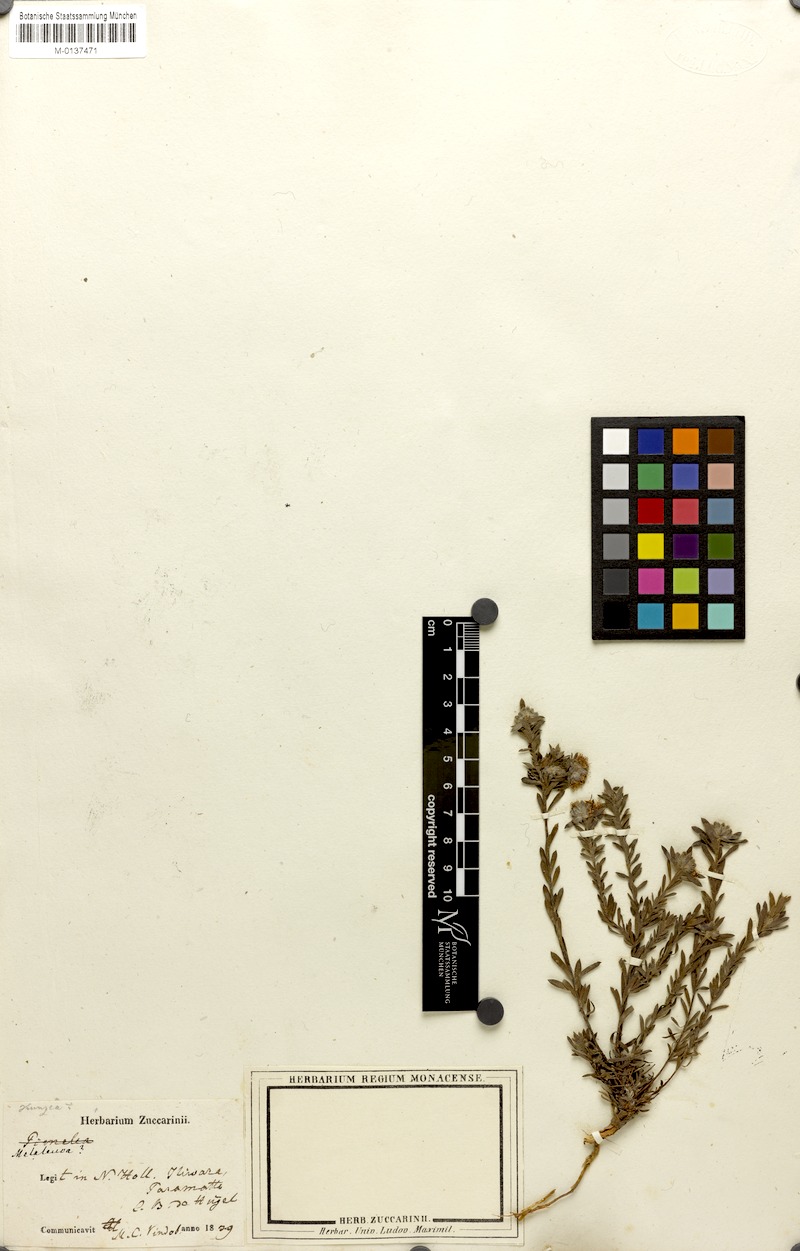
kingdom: Plantae
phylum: Tracheophyta
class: Magnoliopsida
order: Myrtales
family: Myrtaceae
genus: Melaleuca
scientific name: Melaleuca
